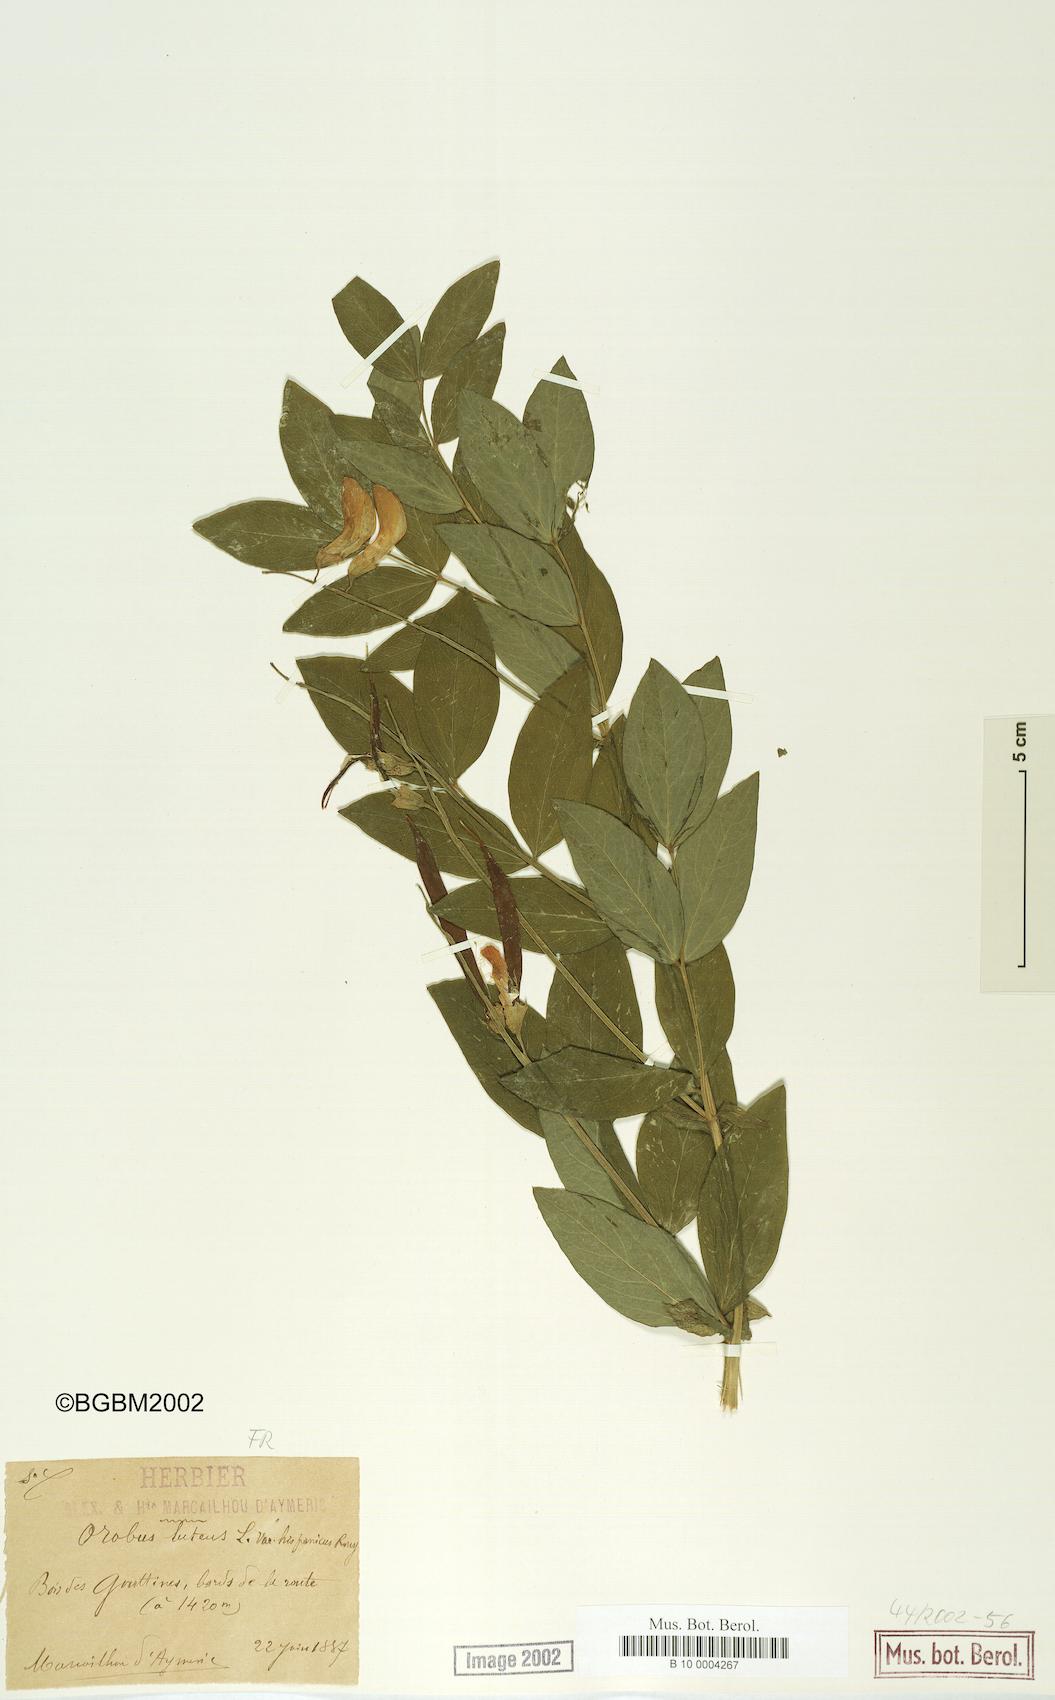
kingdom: Plantae
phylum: Tracheophyta
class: Magnoliopsida
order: Fabales
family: Fabaceae
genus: Lathyrus
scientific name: Lathyrus gmelinii
